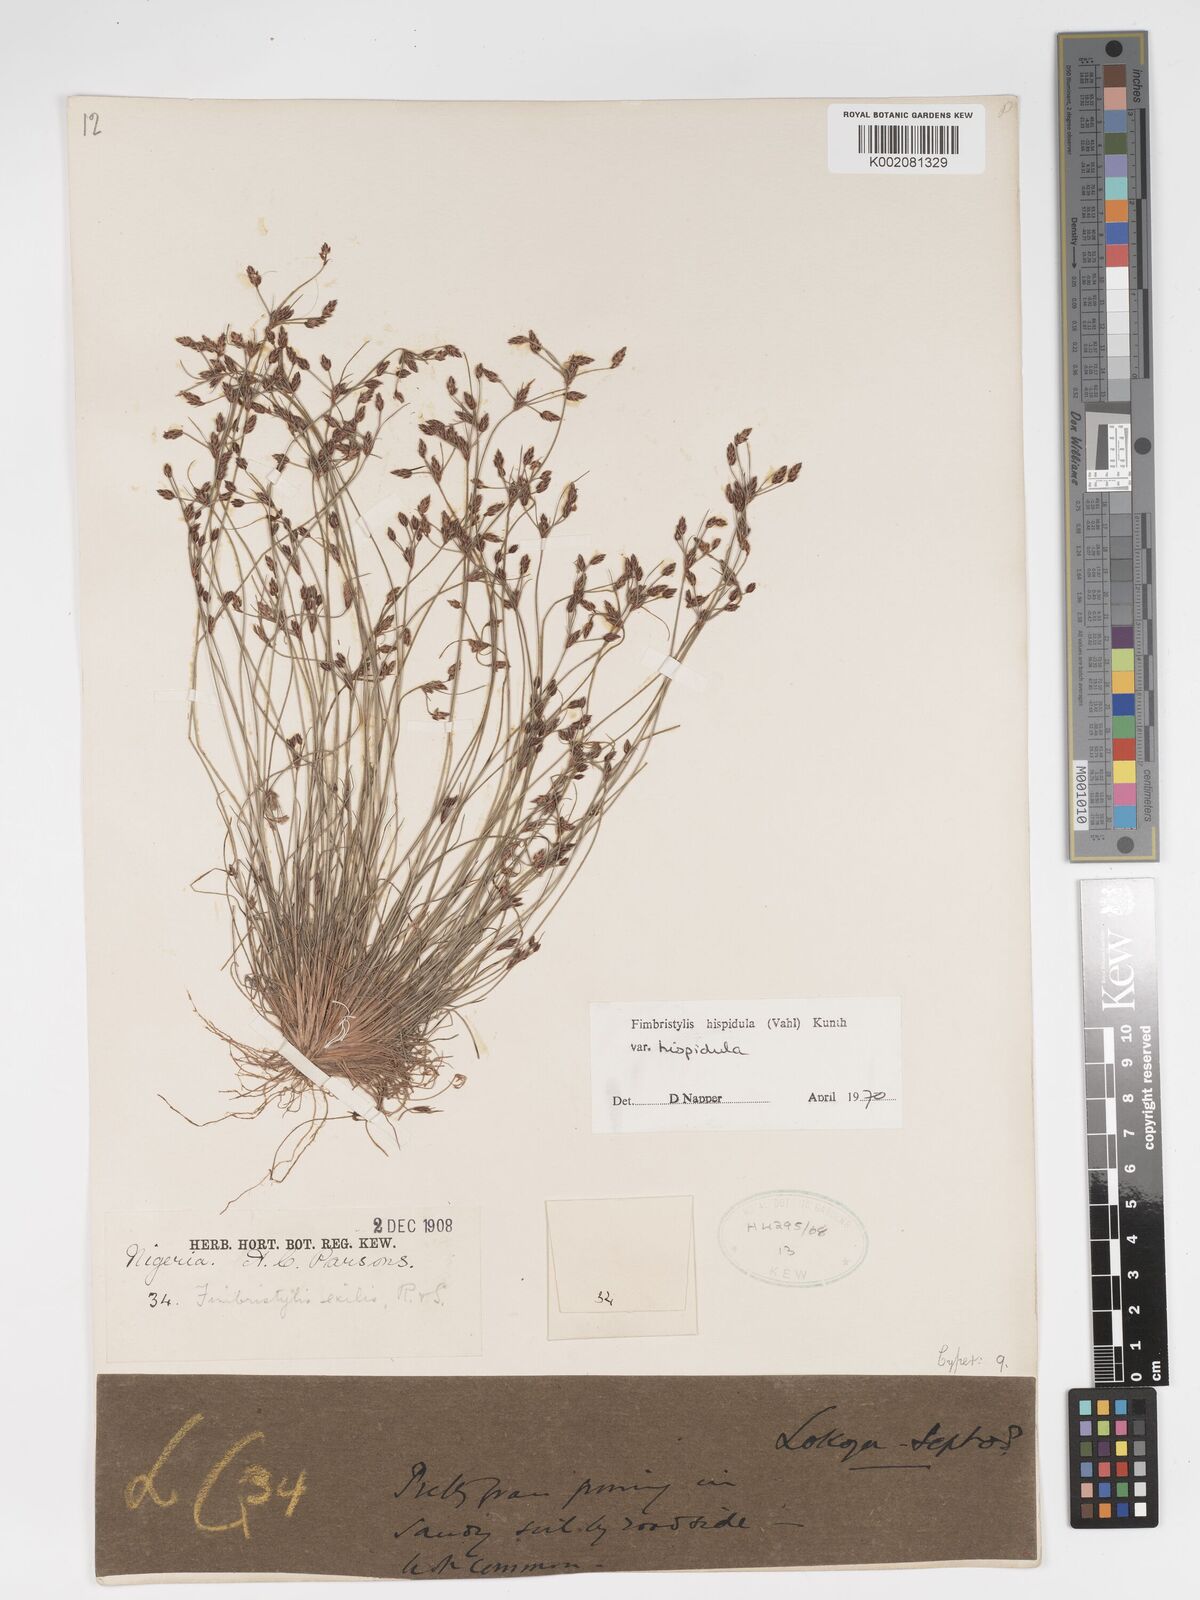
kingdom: Plantae
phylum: Tracheophyta
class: Liliopsida
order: Poales
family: Cyperaceae
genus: Bulbostylis
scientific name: Bulbostylis hispidula
